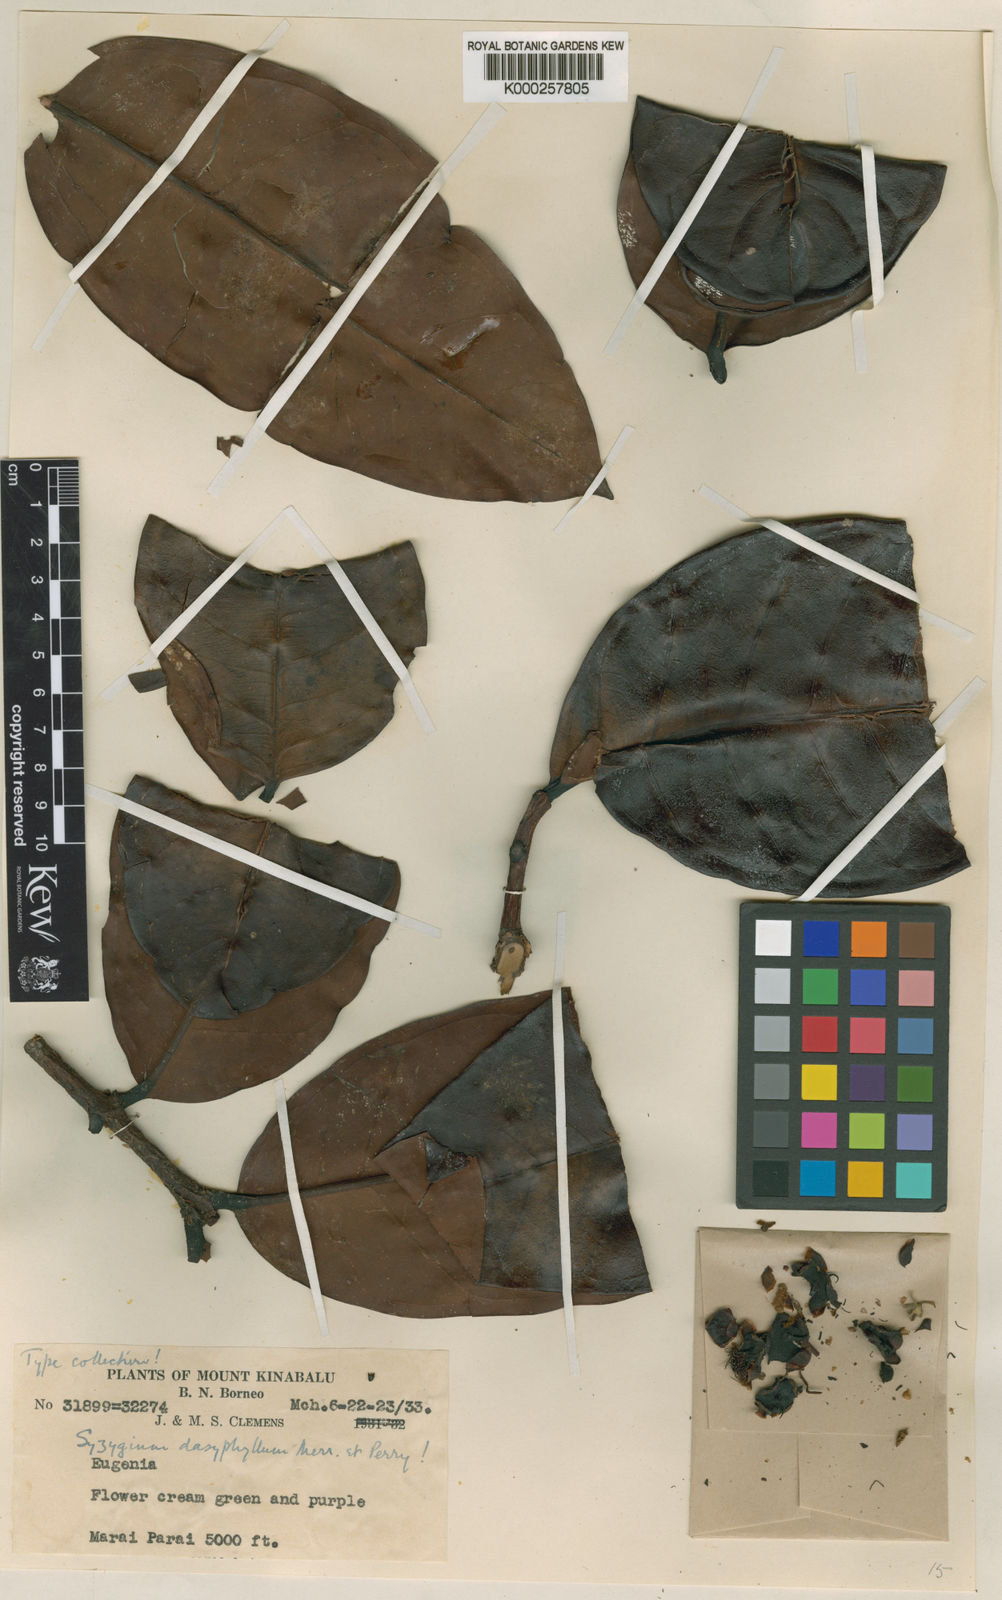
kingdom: Plantae
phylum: Tracheophyta
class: Magnoliopsida
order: Myrtales
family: Myrtaceae
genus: Syzygium
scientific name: Syzygium dasyphyllum
